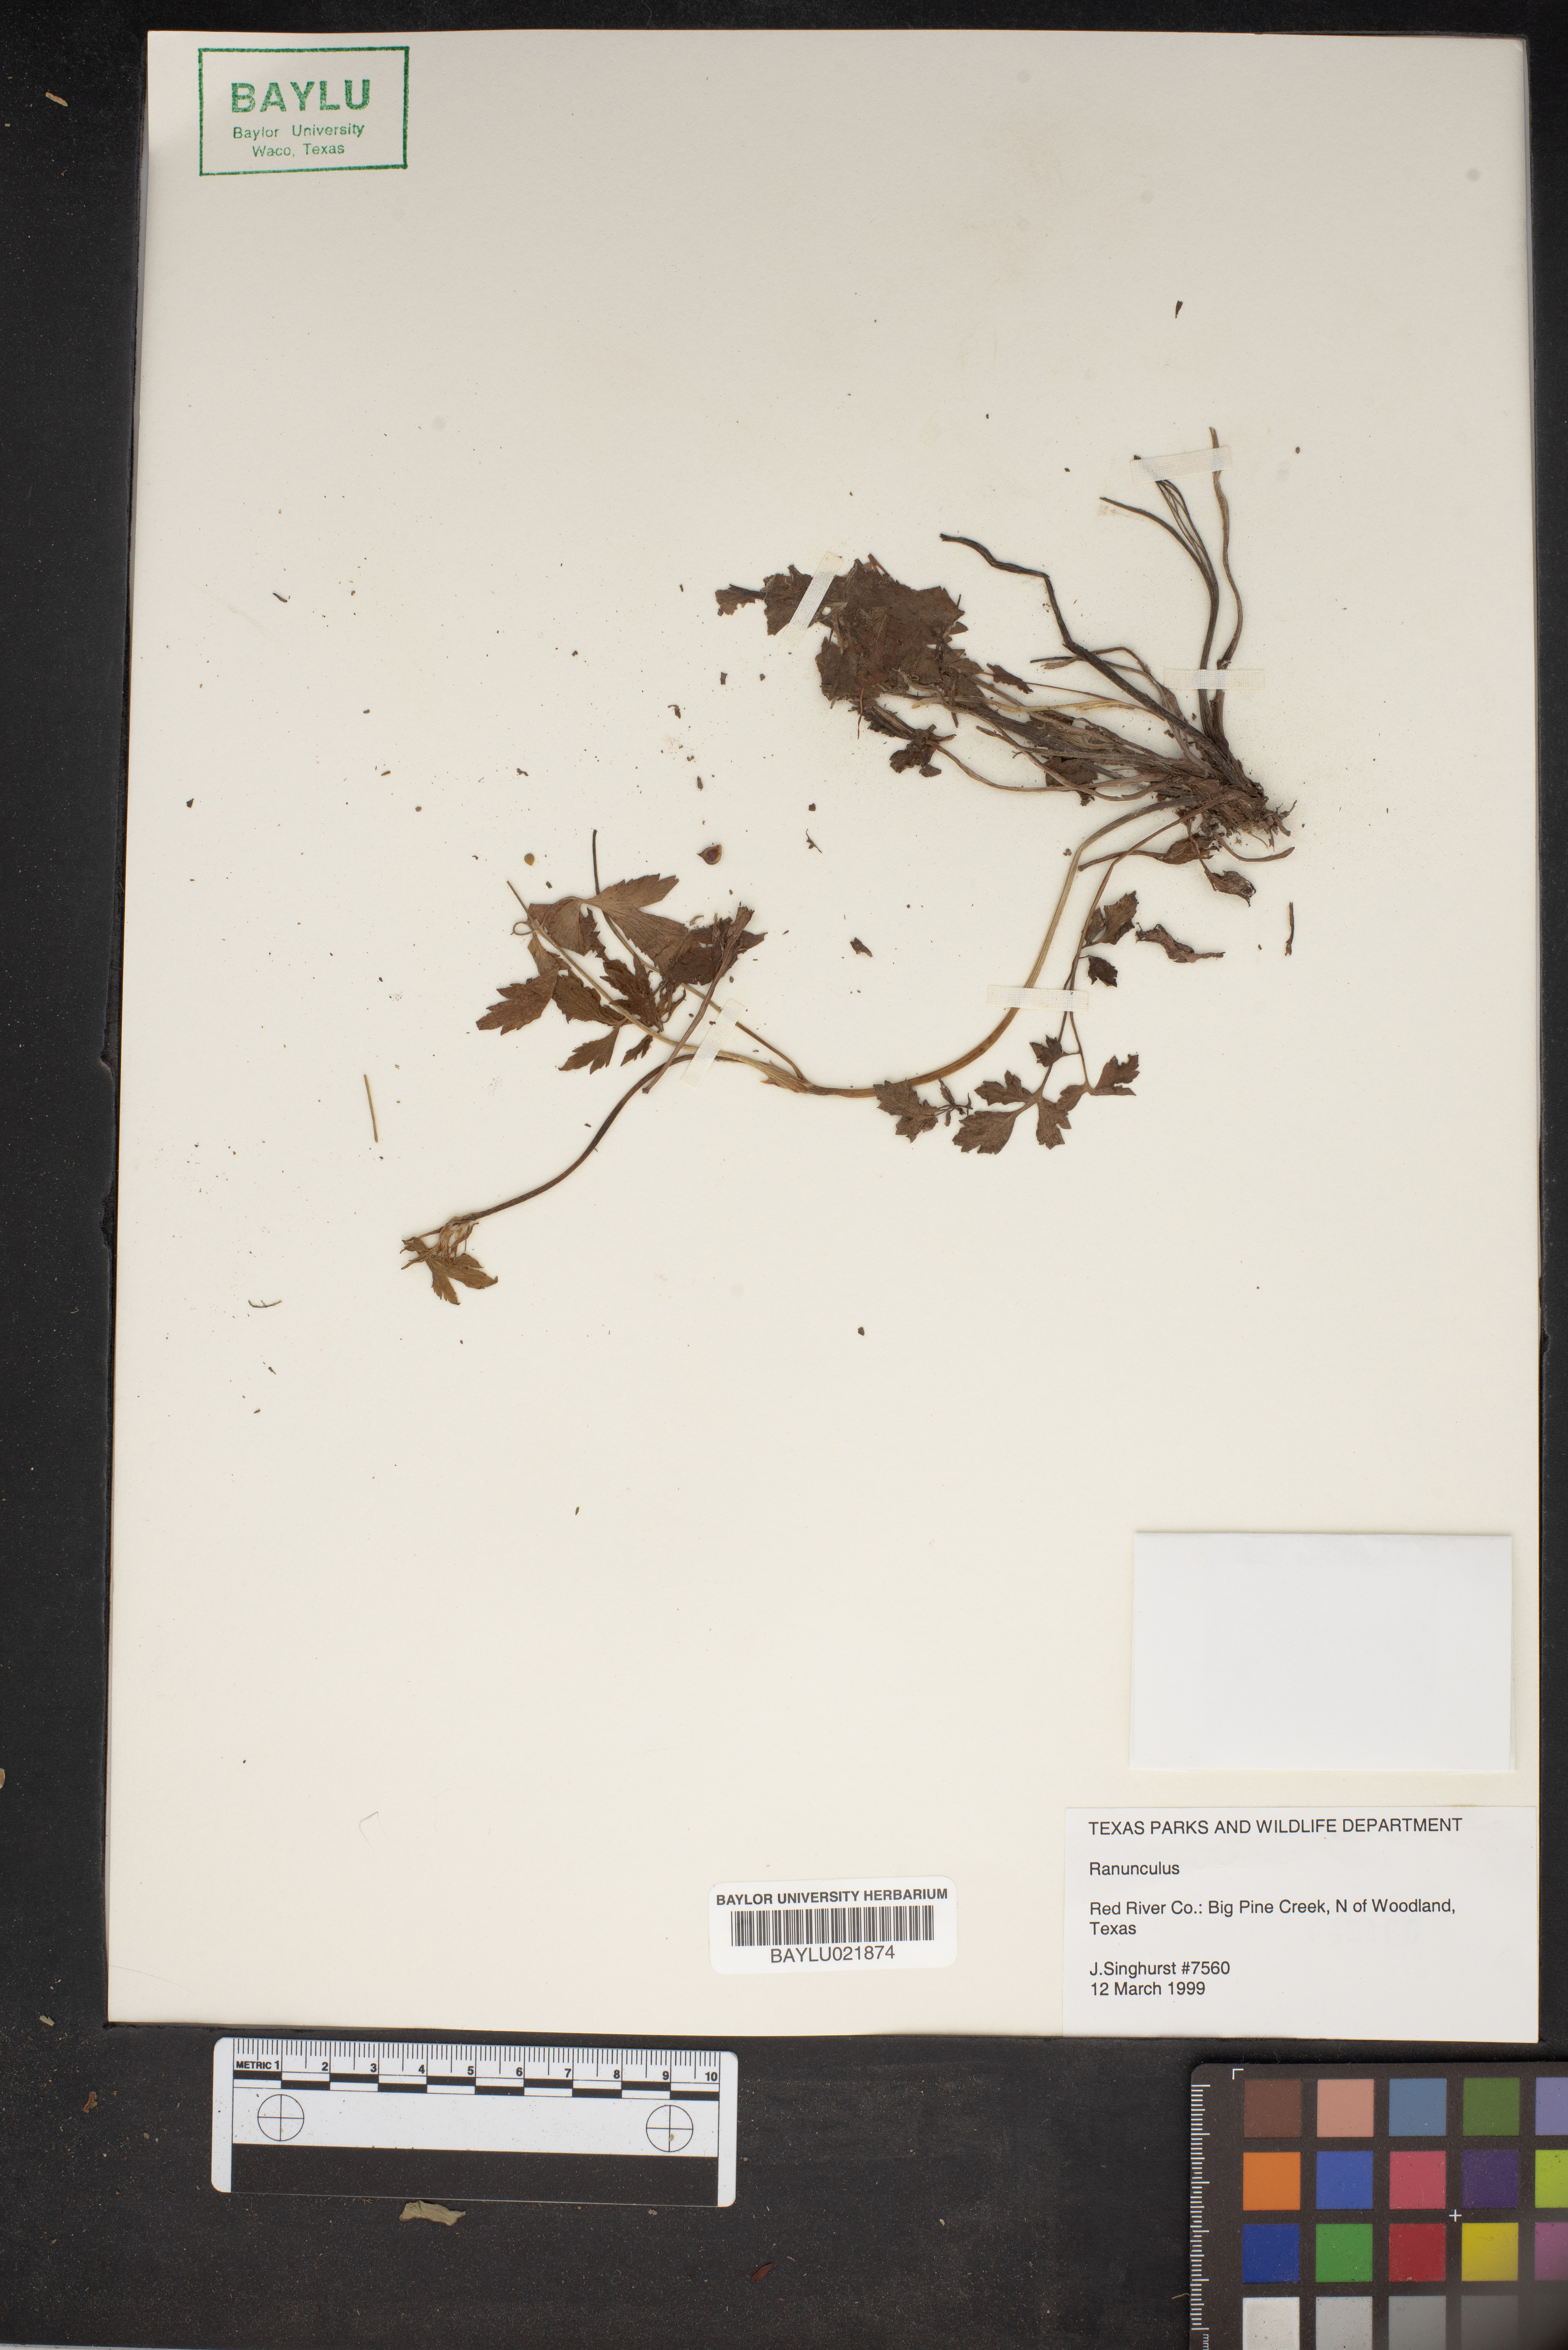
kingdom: Plantae
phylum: Tracheophyta
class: Magnoliopsida
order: Ranunculales
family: Ranunculaceae
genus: Ranunculus
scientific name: Ranunculus
